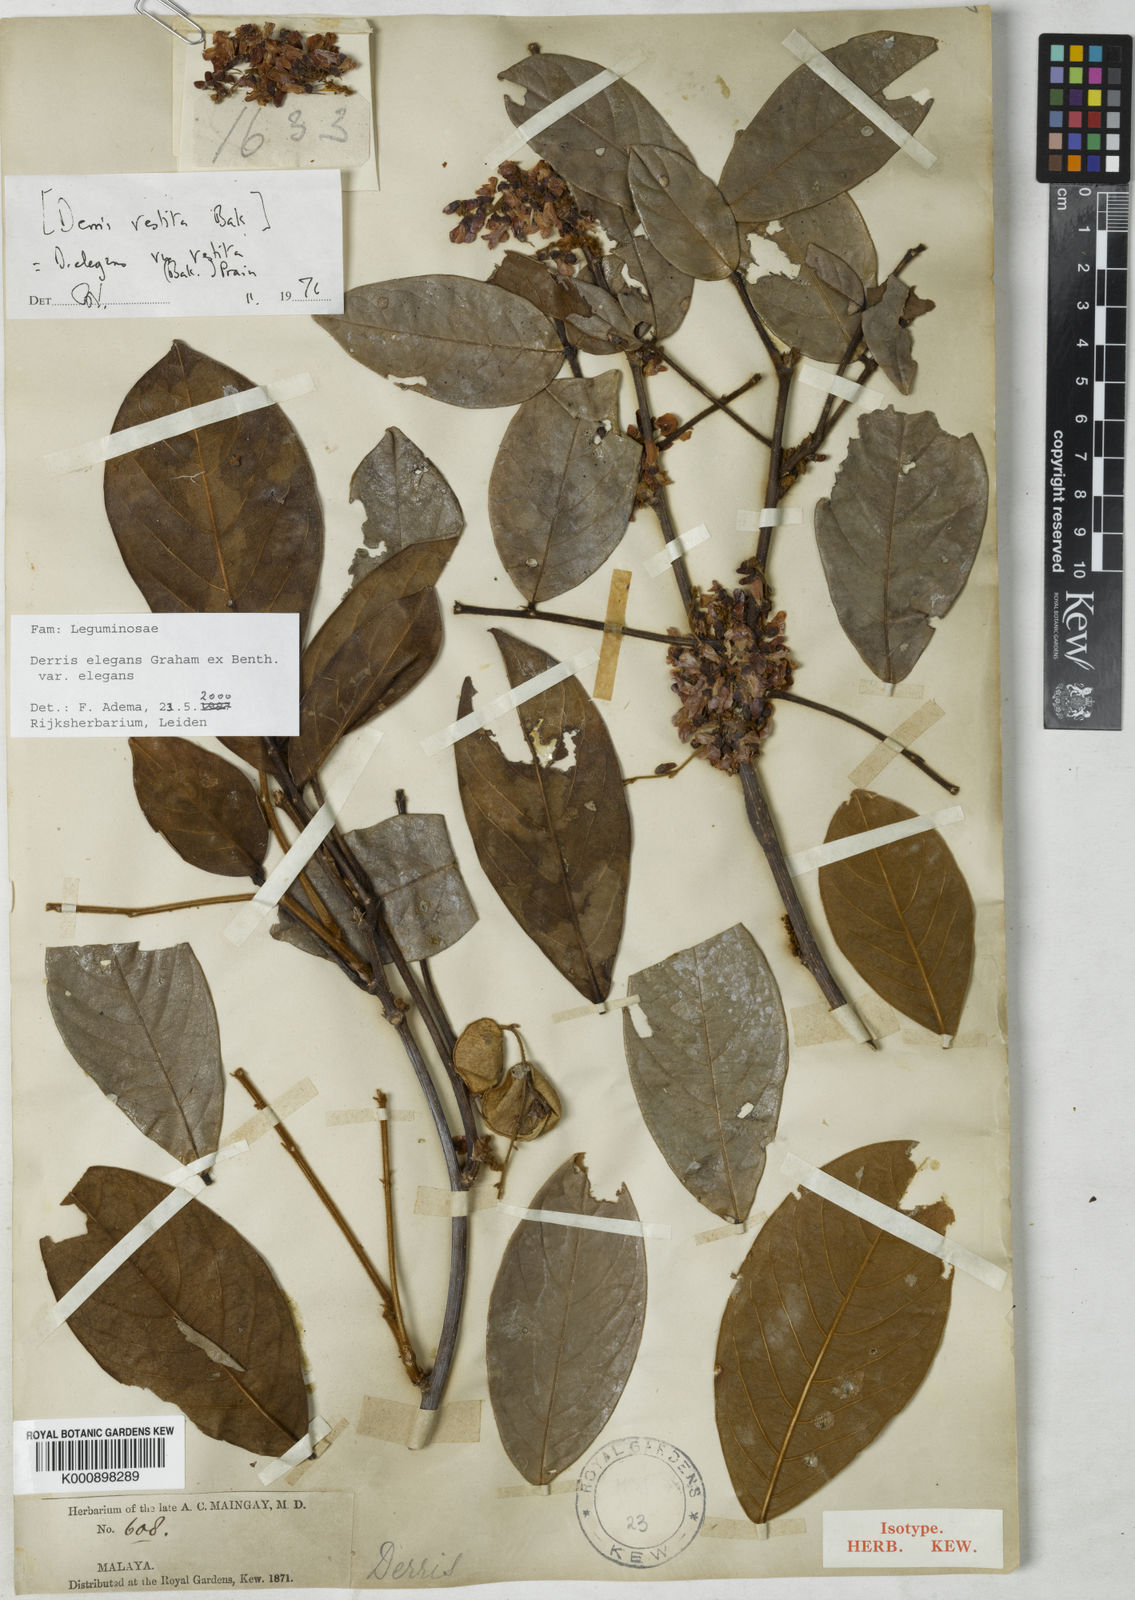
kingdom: Plantae
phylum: Tracheophyta
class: Magnoliopsida
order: Fabales
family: Fabaceae
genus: Derris
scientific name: Derris elegans
